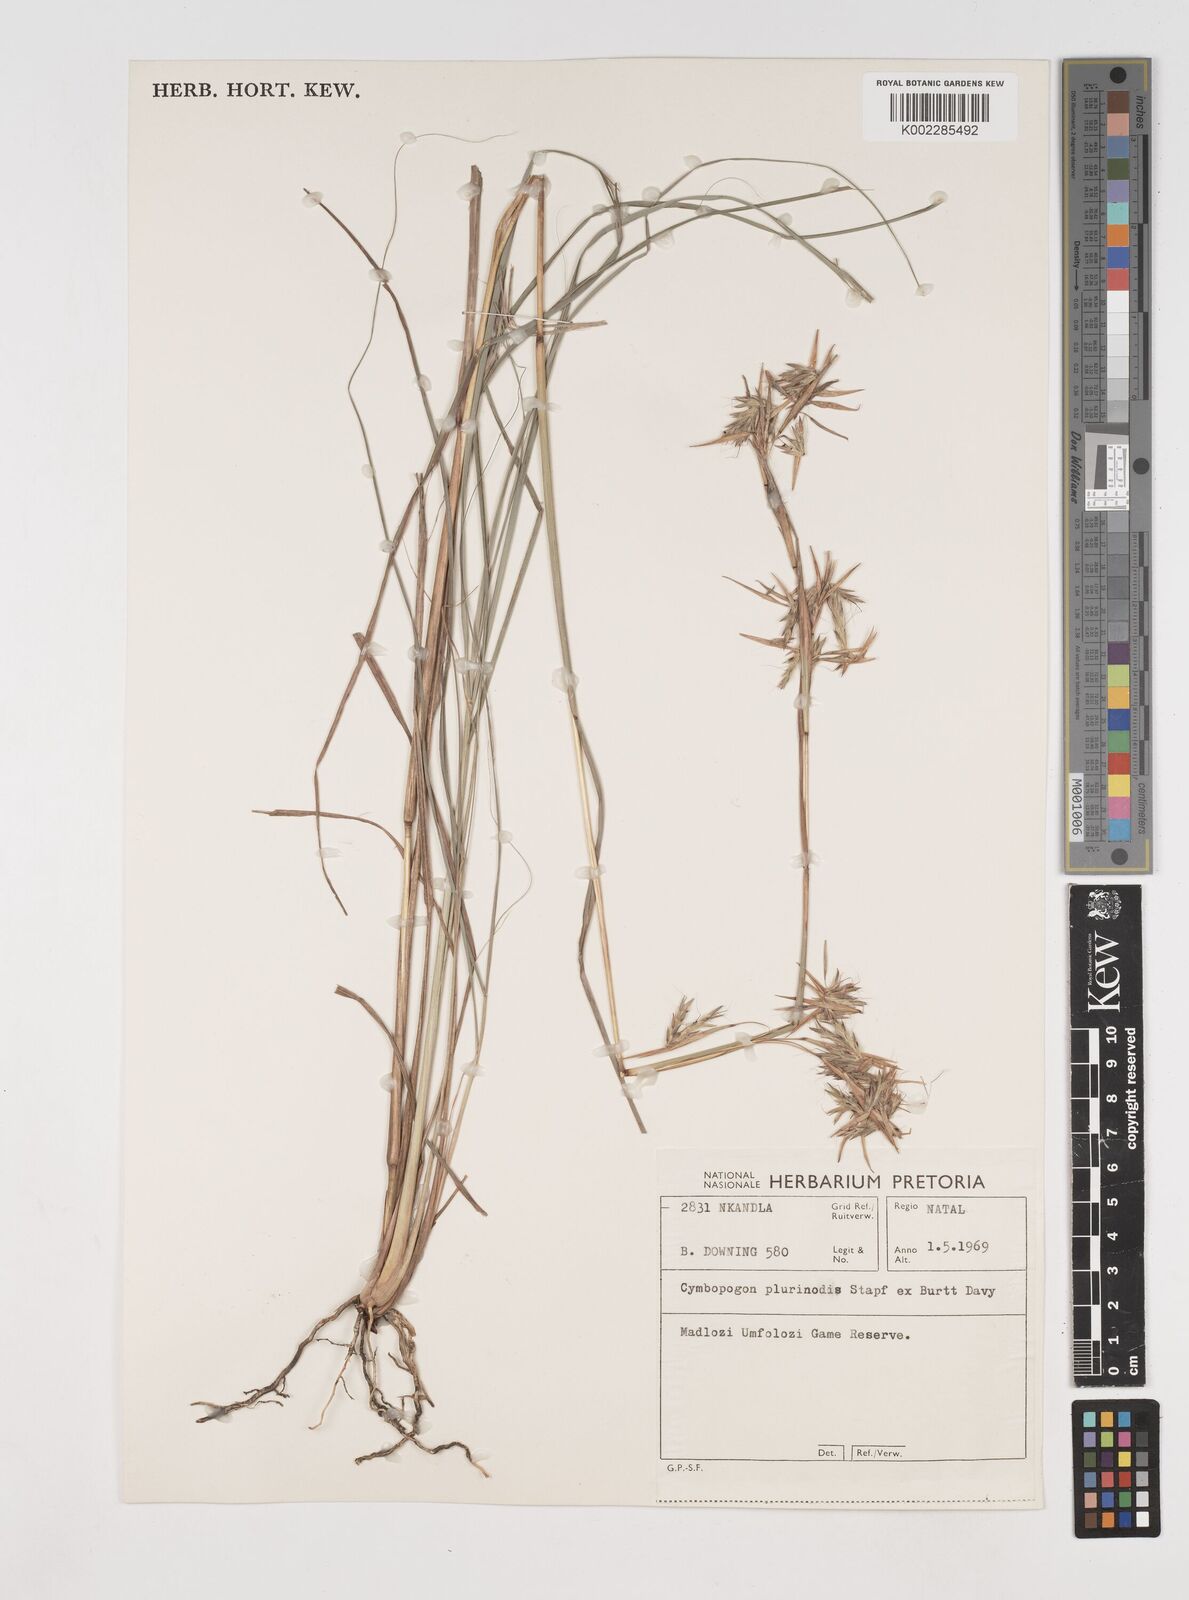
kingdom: Plantae
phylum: Tracheophyta
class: Liliopsida
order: Poales
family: Poaceae
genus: Cymbopogon
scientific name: Cymbopogon pospischilii
